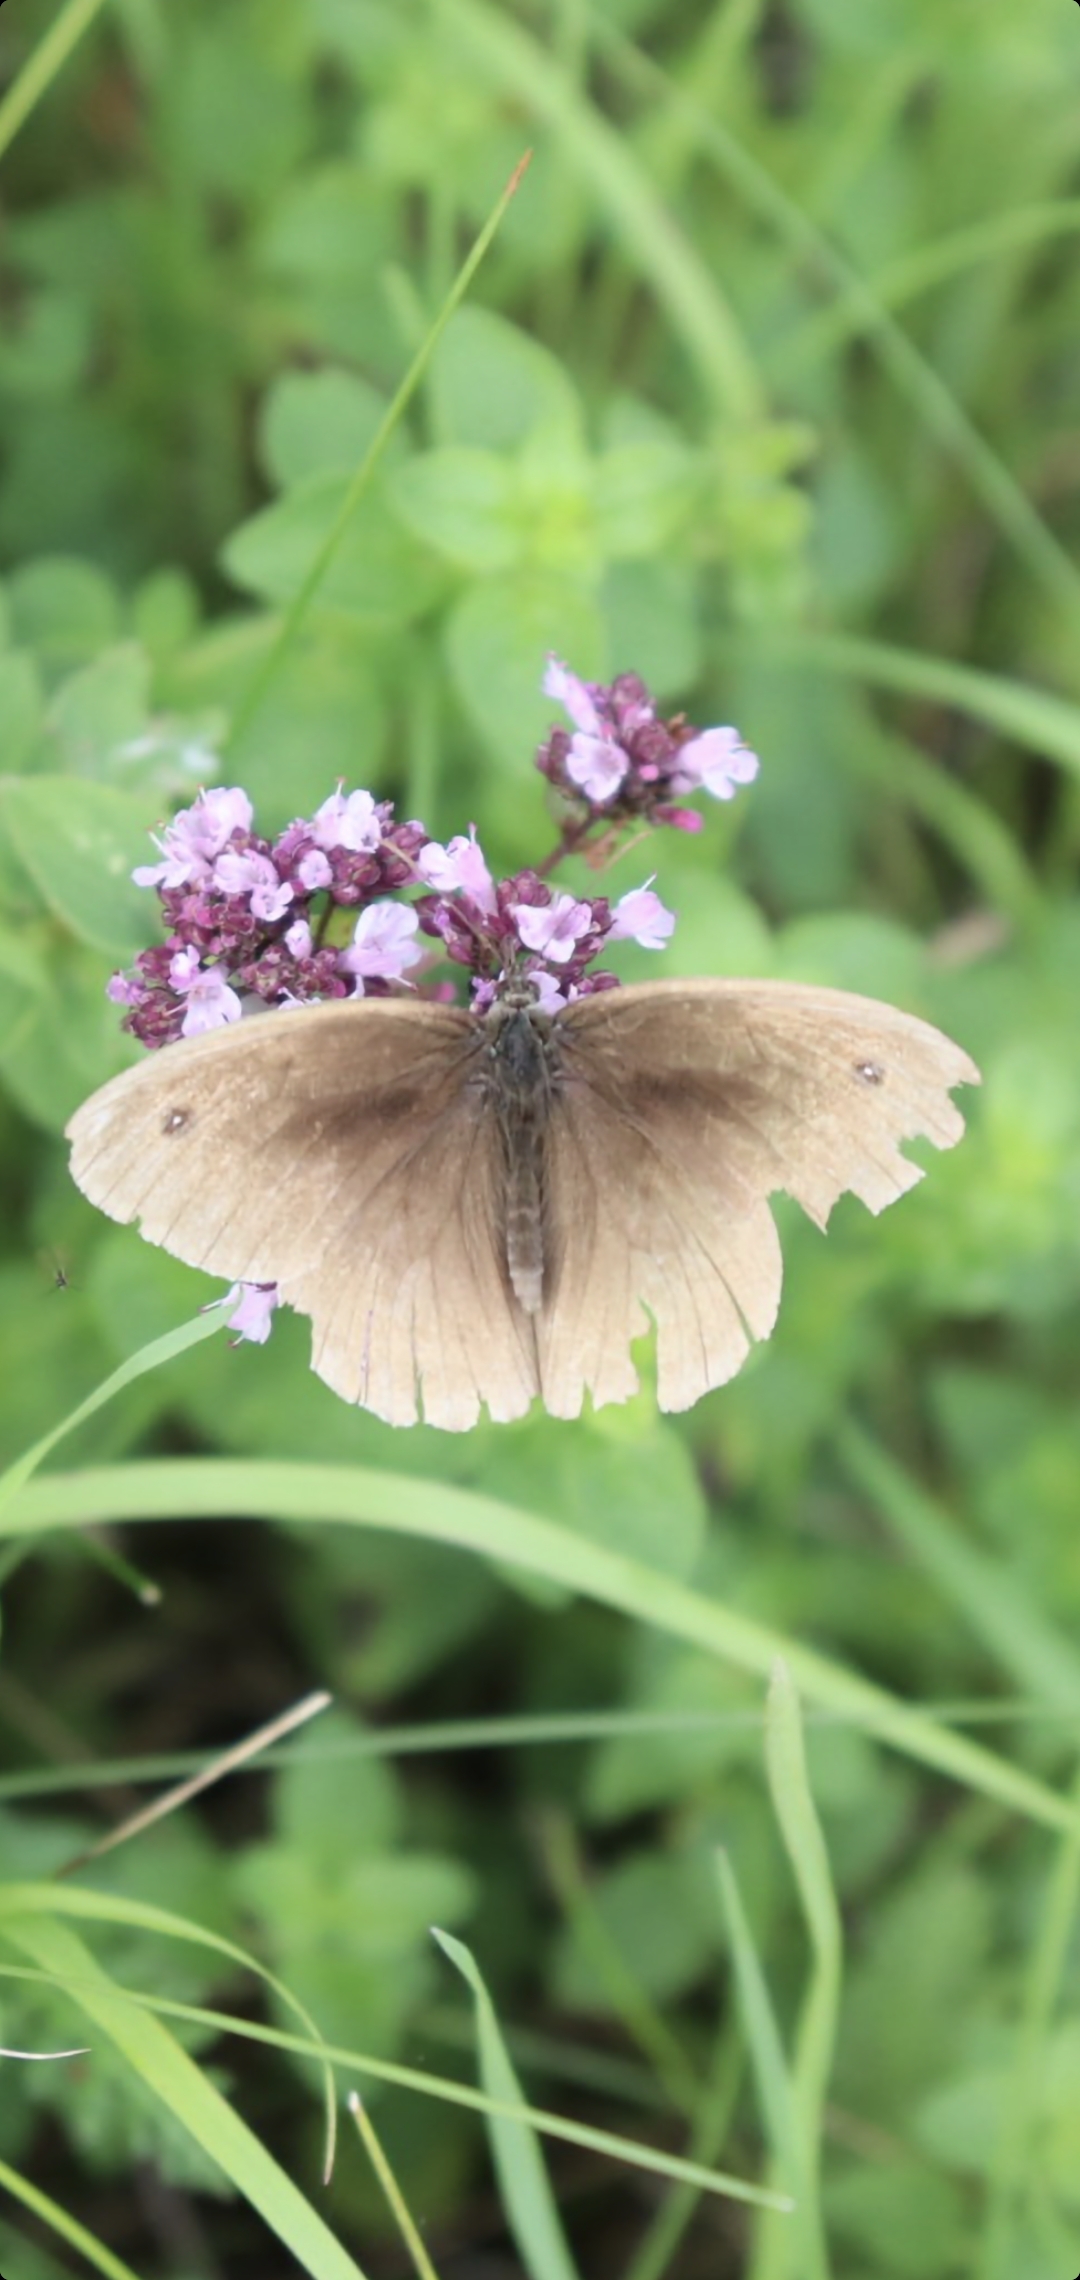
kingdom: Animalia
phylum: Arthropoda
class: Insecta
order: Lepidoptera
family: Nymphalidae
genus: Maniola
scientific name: Maniola jurtina
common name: Græsrandøje
